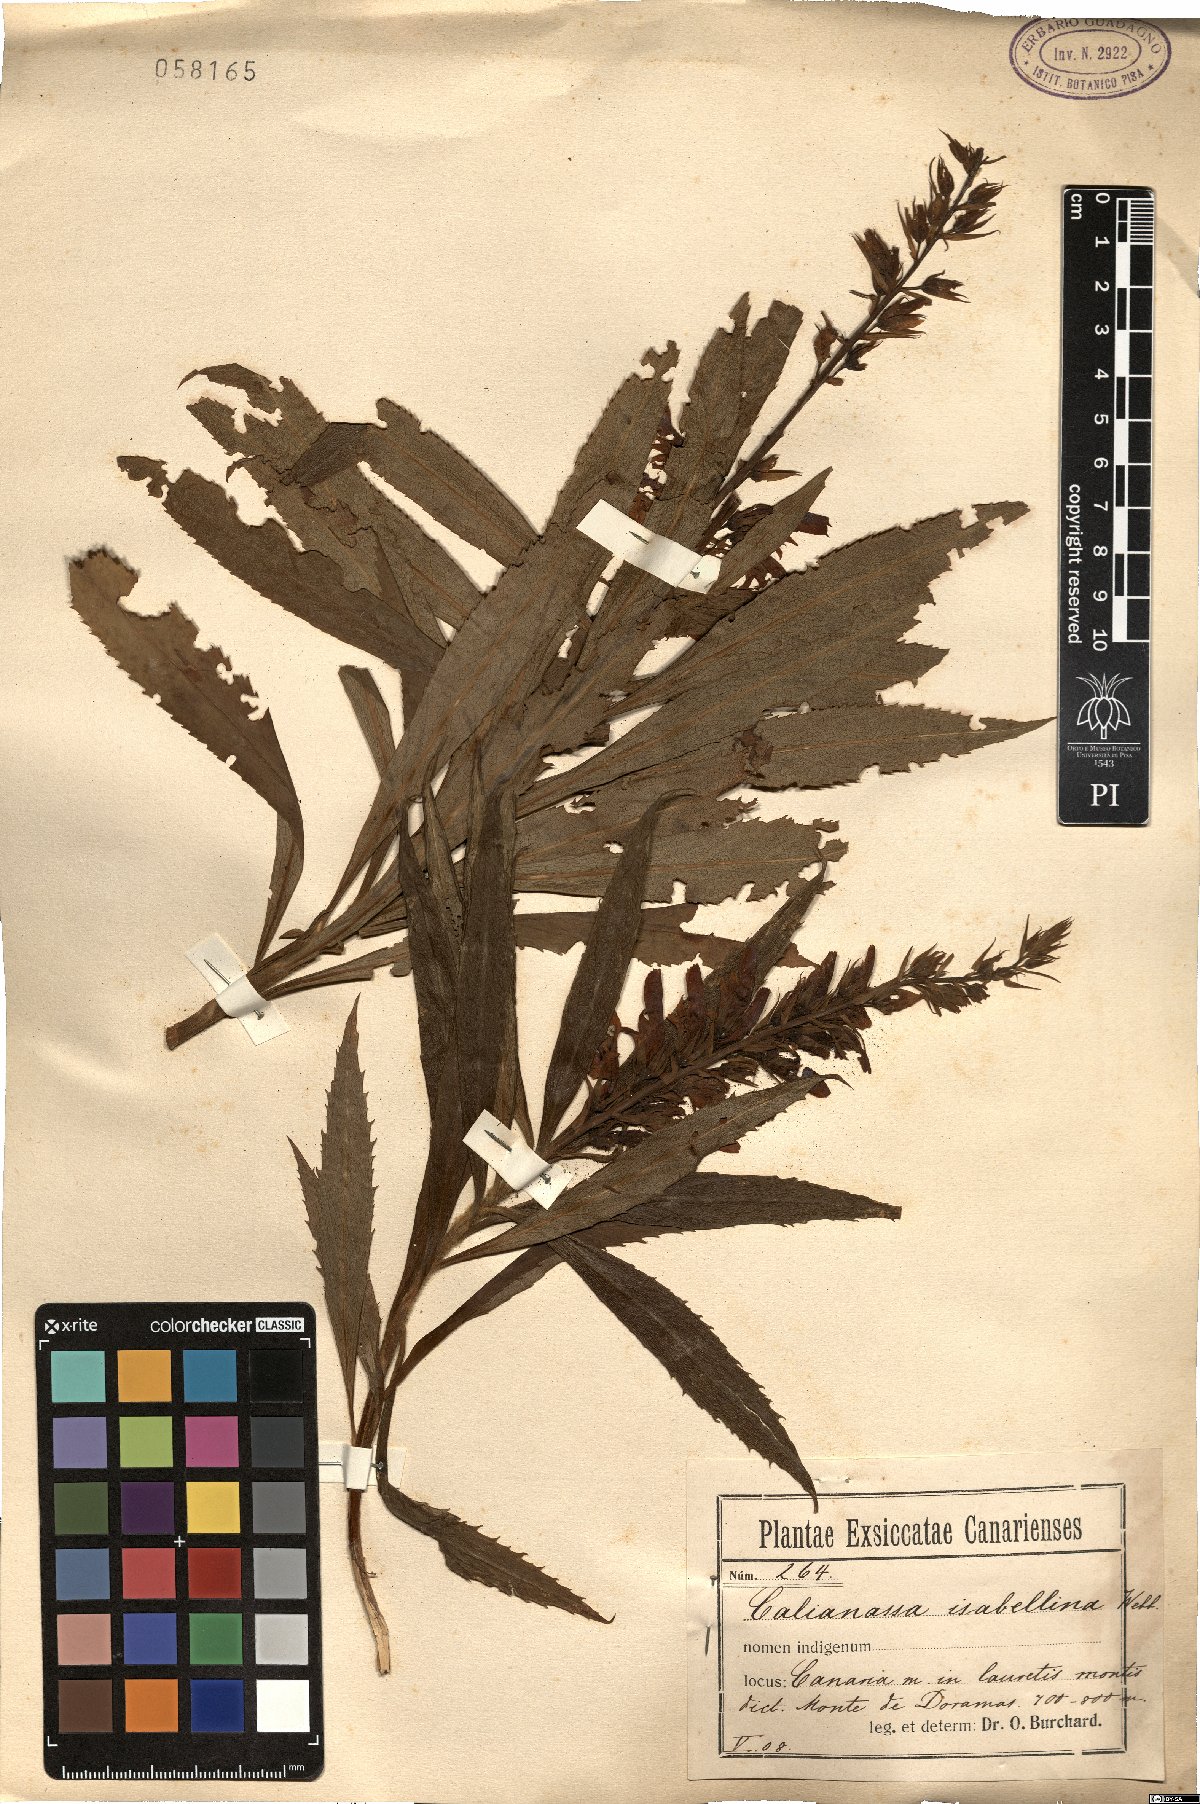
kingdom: Plantae
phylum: Tracheophyta
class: Magnoliopsida
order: Lamiales
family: Plantaginaceae
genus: Digitalis
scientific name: Digitalis isabelliana
